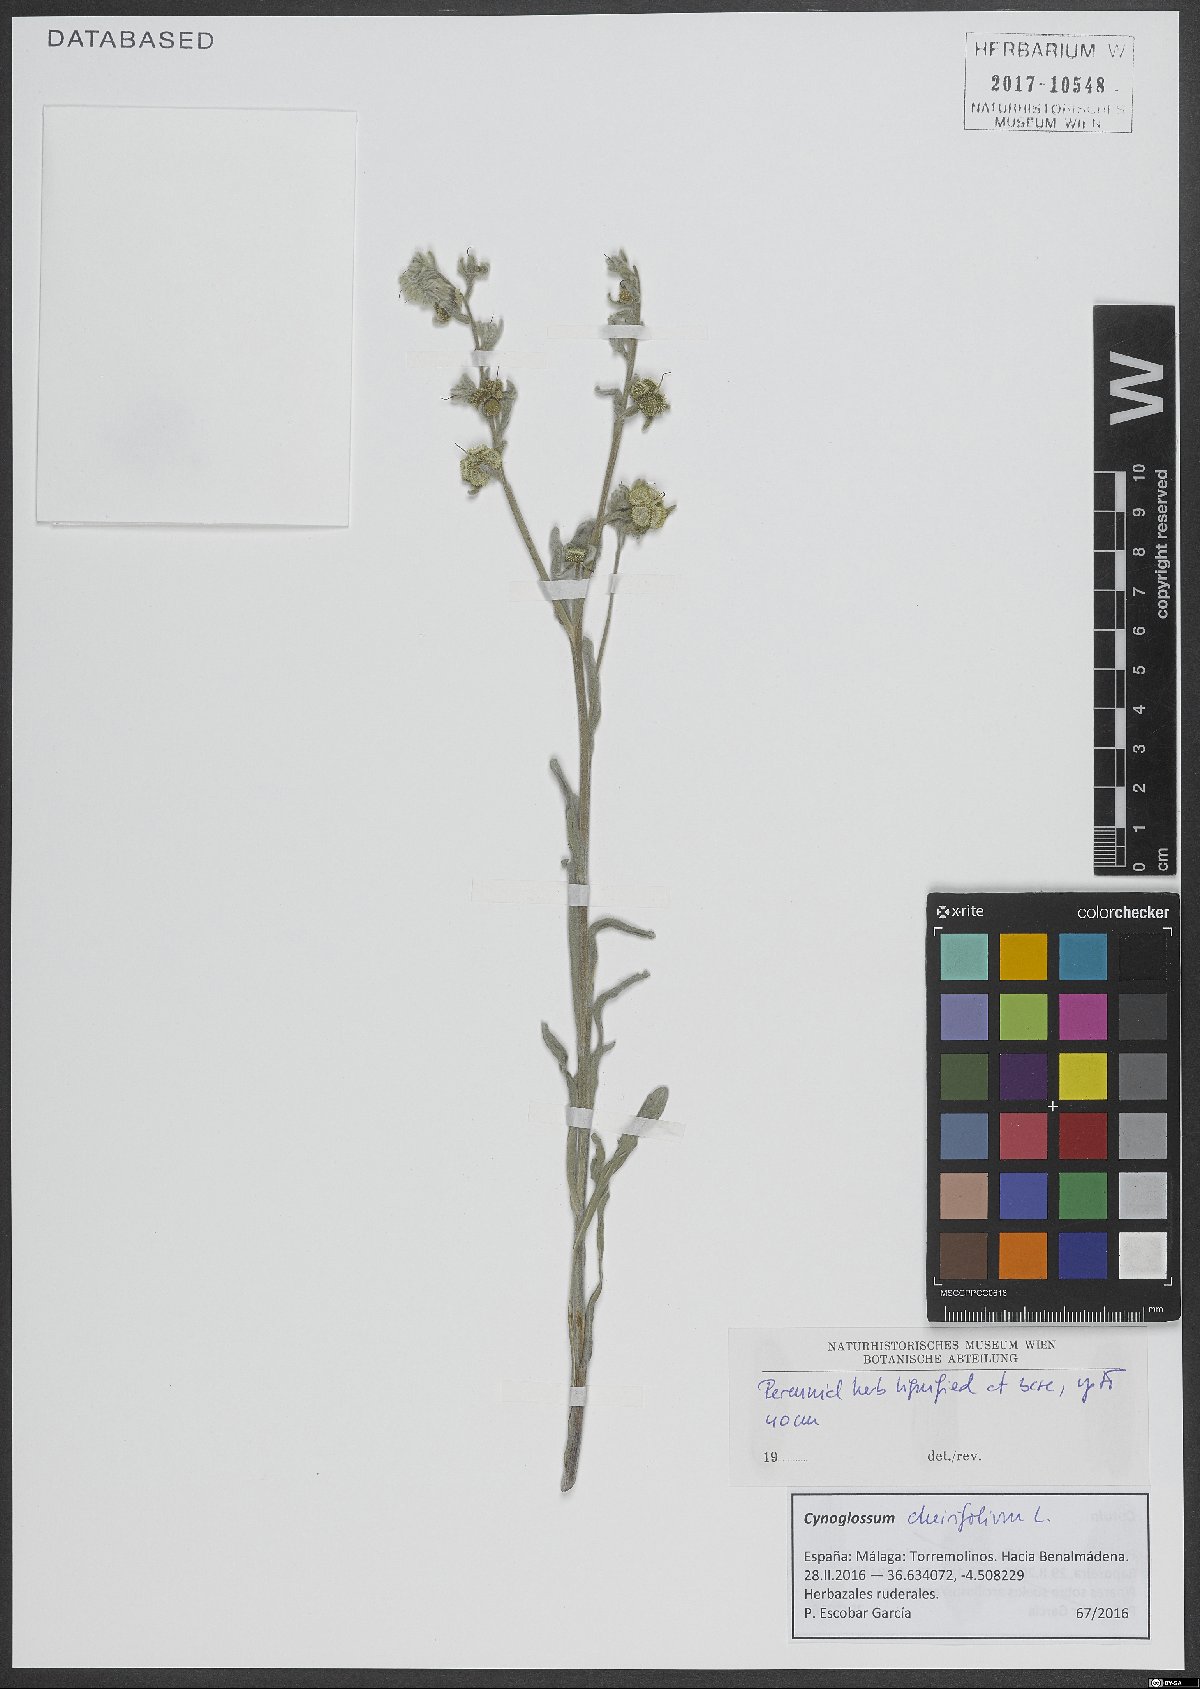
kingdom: Plantae
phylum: Tracheophyta
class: Magnoliopsida
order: Boraginales
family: Boraginaceae
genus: Pardoglossum
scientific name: Pardoglossum cheirifolium
